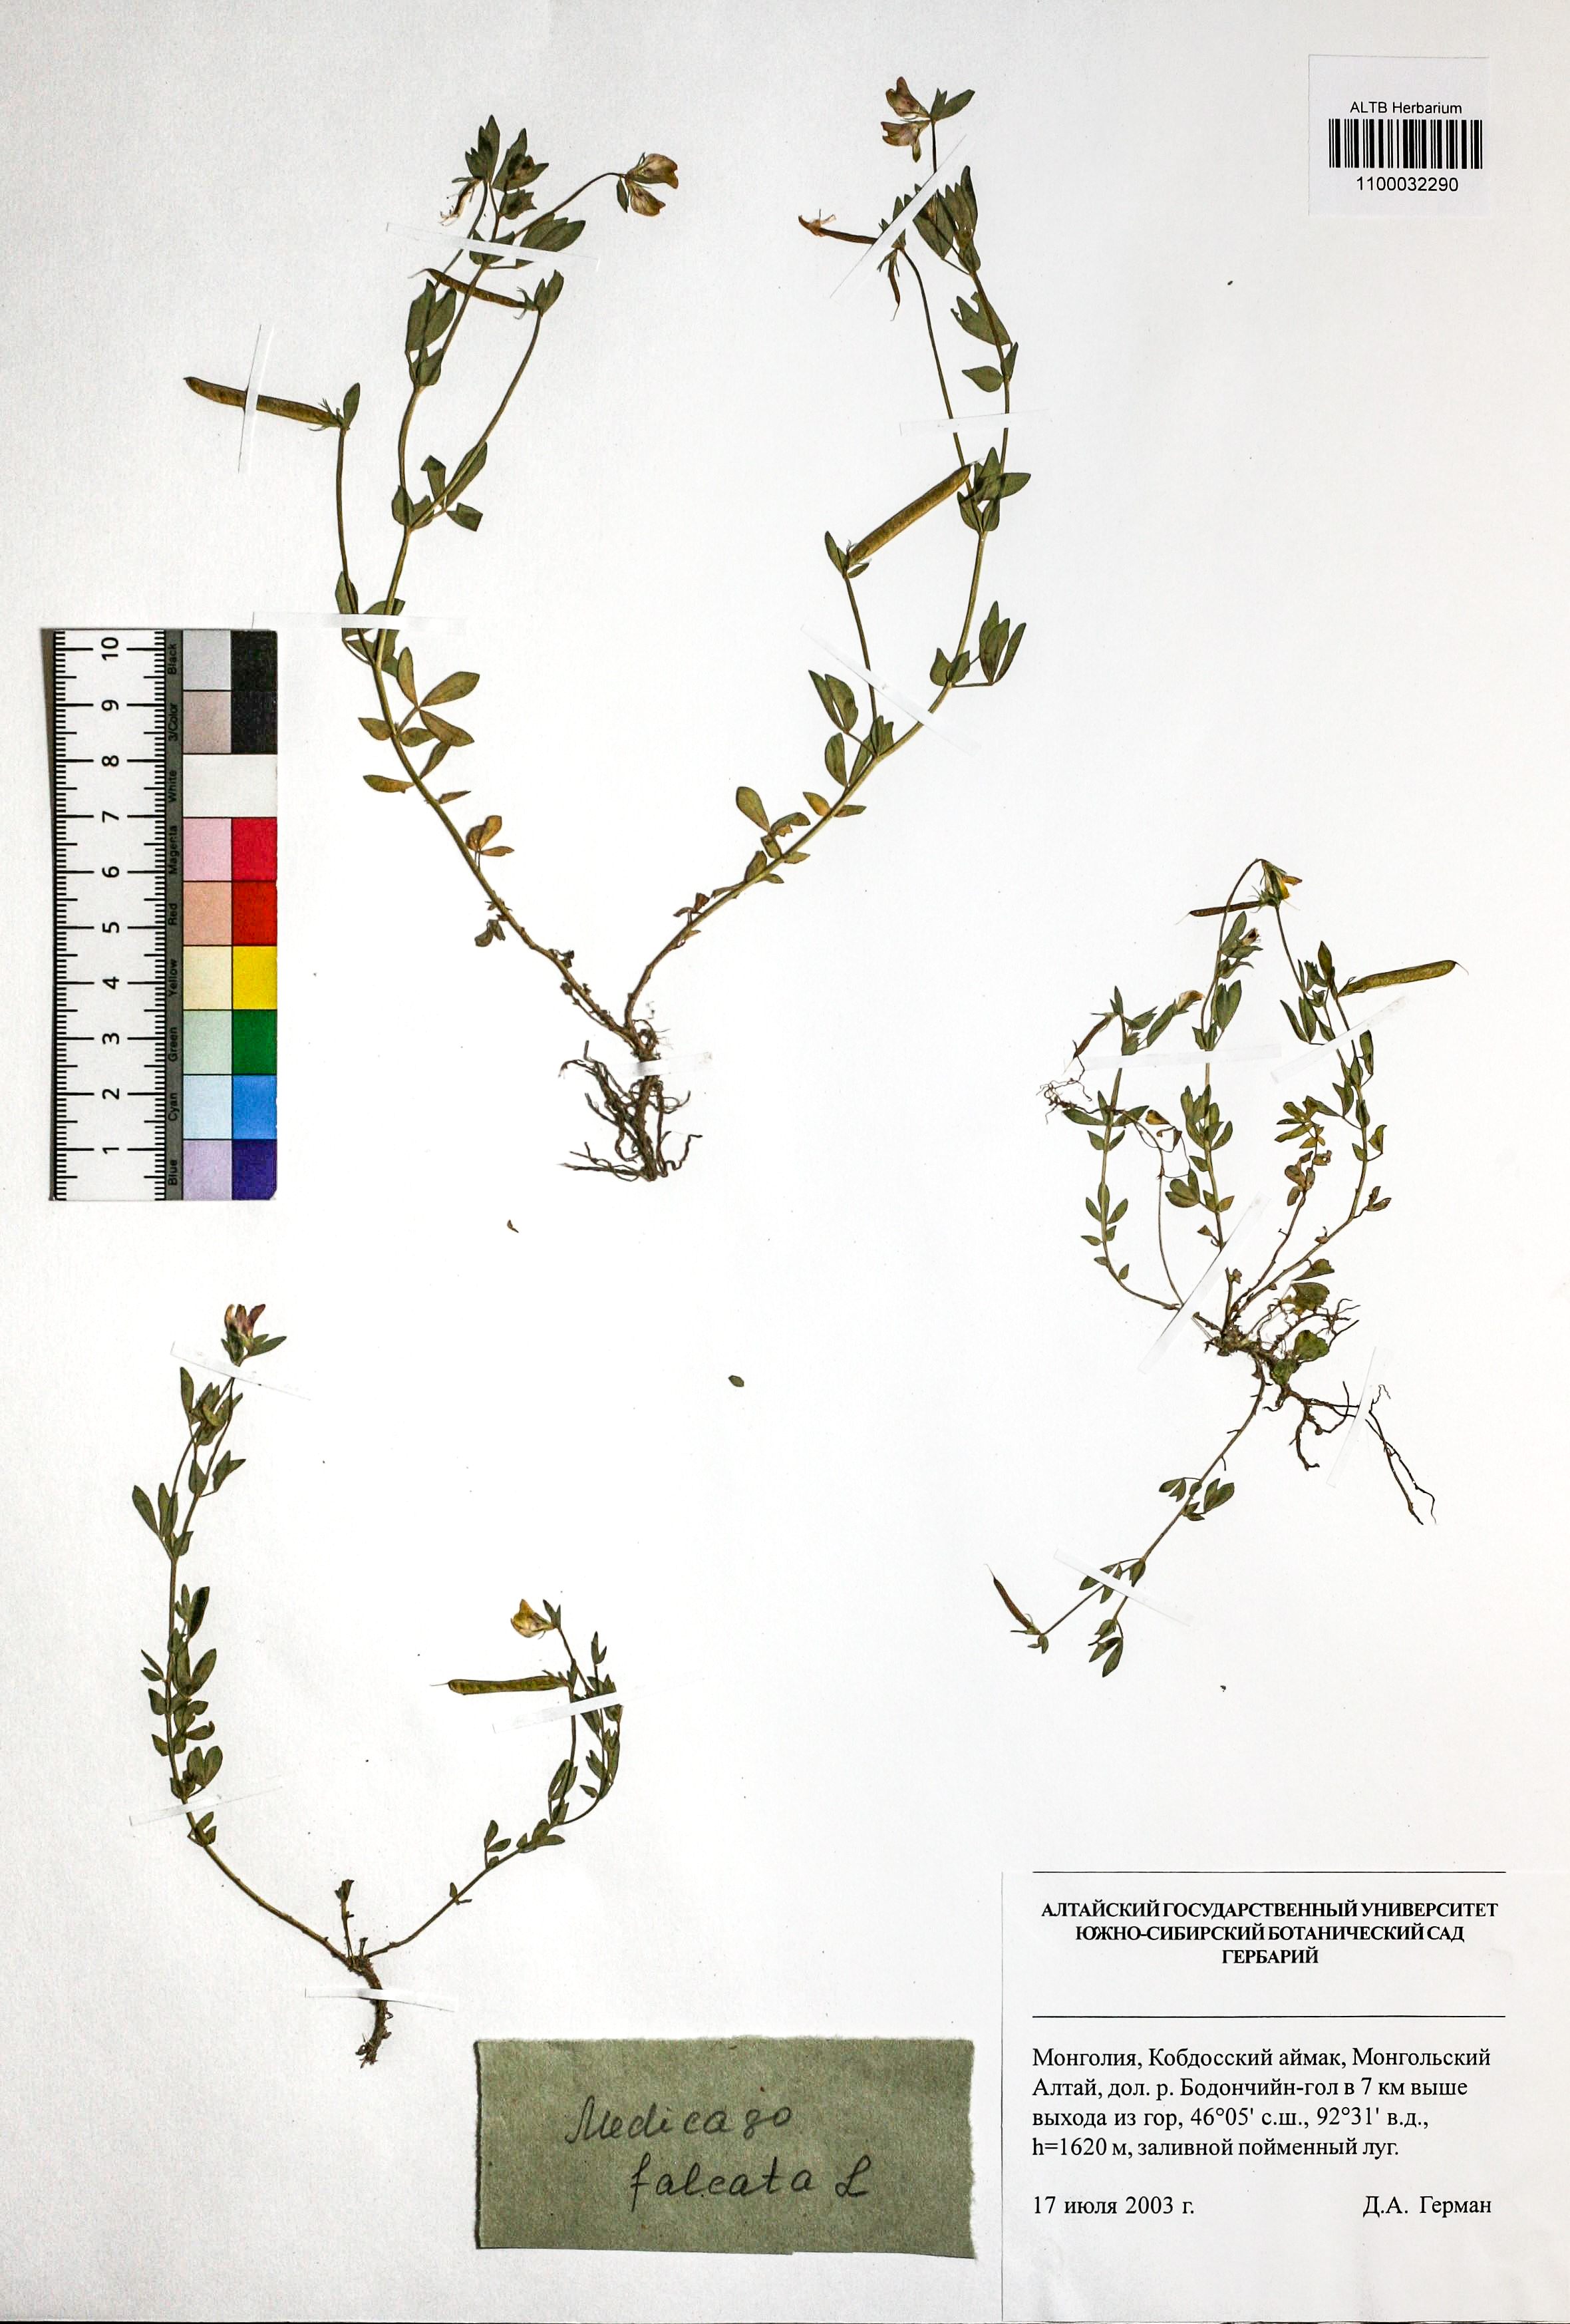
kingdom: Plantae
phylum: Tracheophyta
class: Magnoliopsida
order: Fabales
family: Fabaceae
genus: Medicago
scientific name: Medicago falcata
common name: Sickle medick
